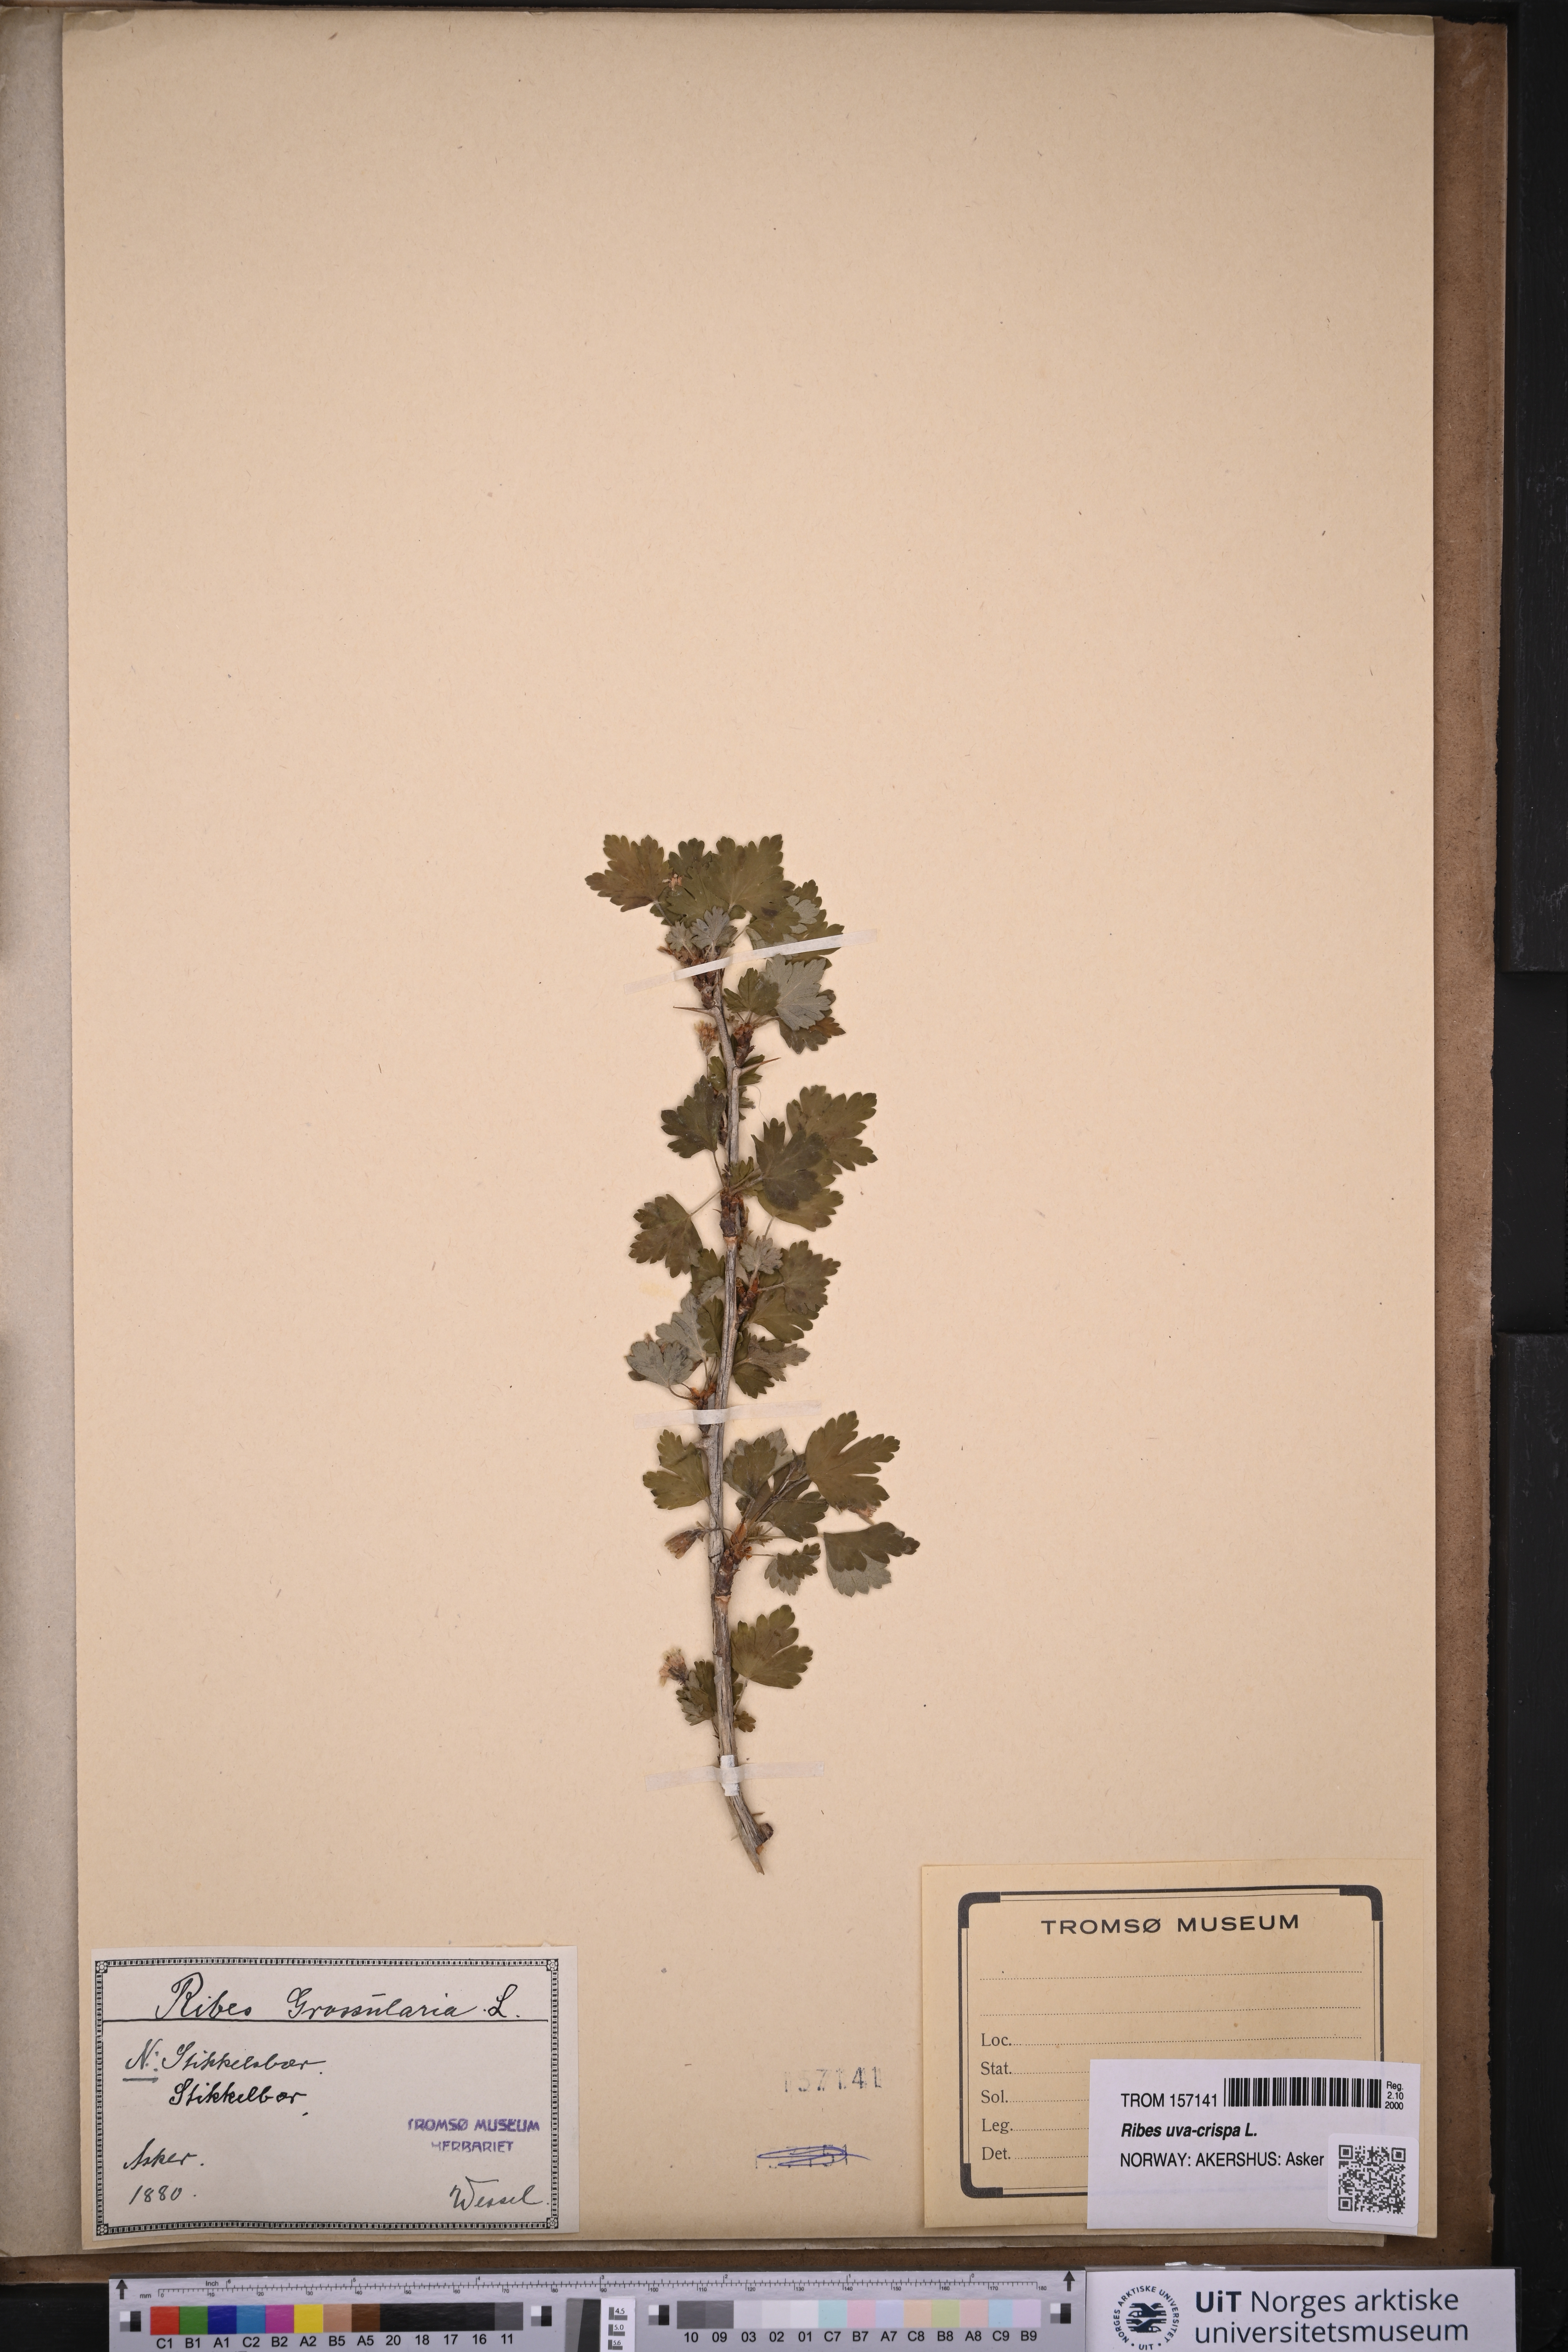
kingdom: Plantae
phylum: Tracheophyta
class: Magnoliopsida
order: Saxifragales
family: Grossulariaceae
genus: Ribes
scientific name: Ribes uva-crispa
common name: Gooseberry
